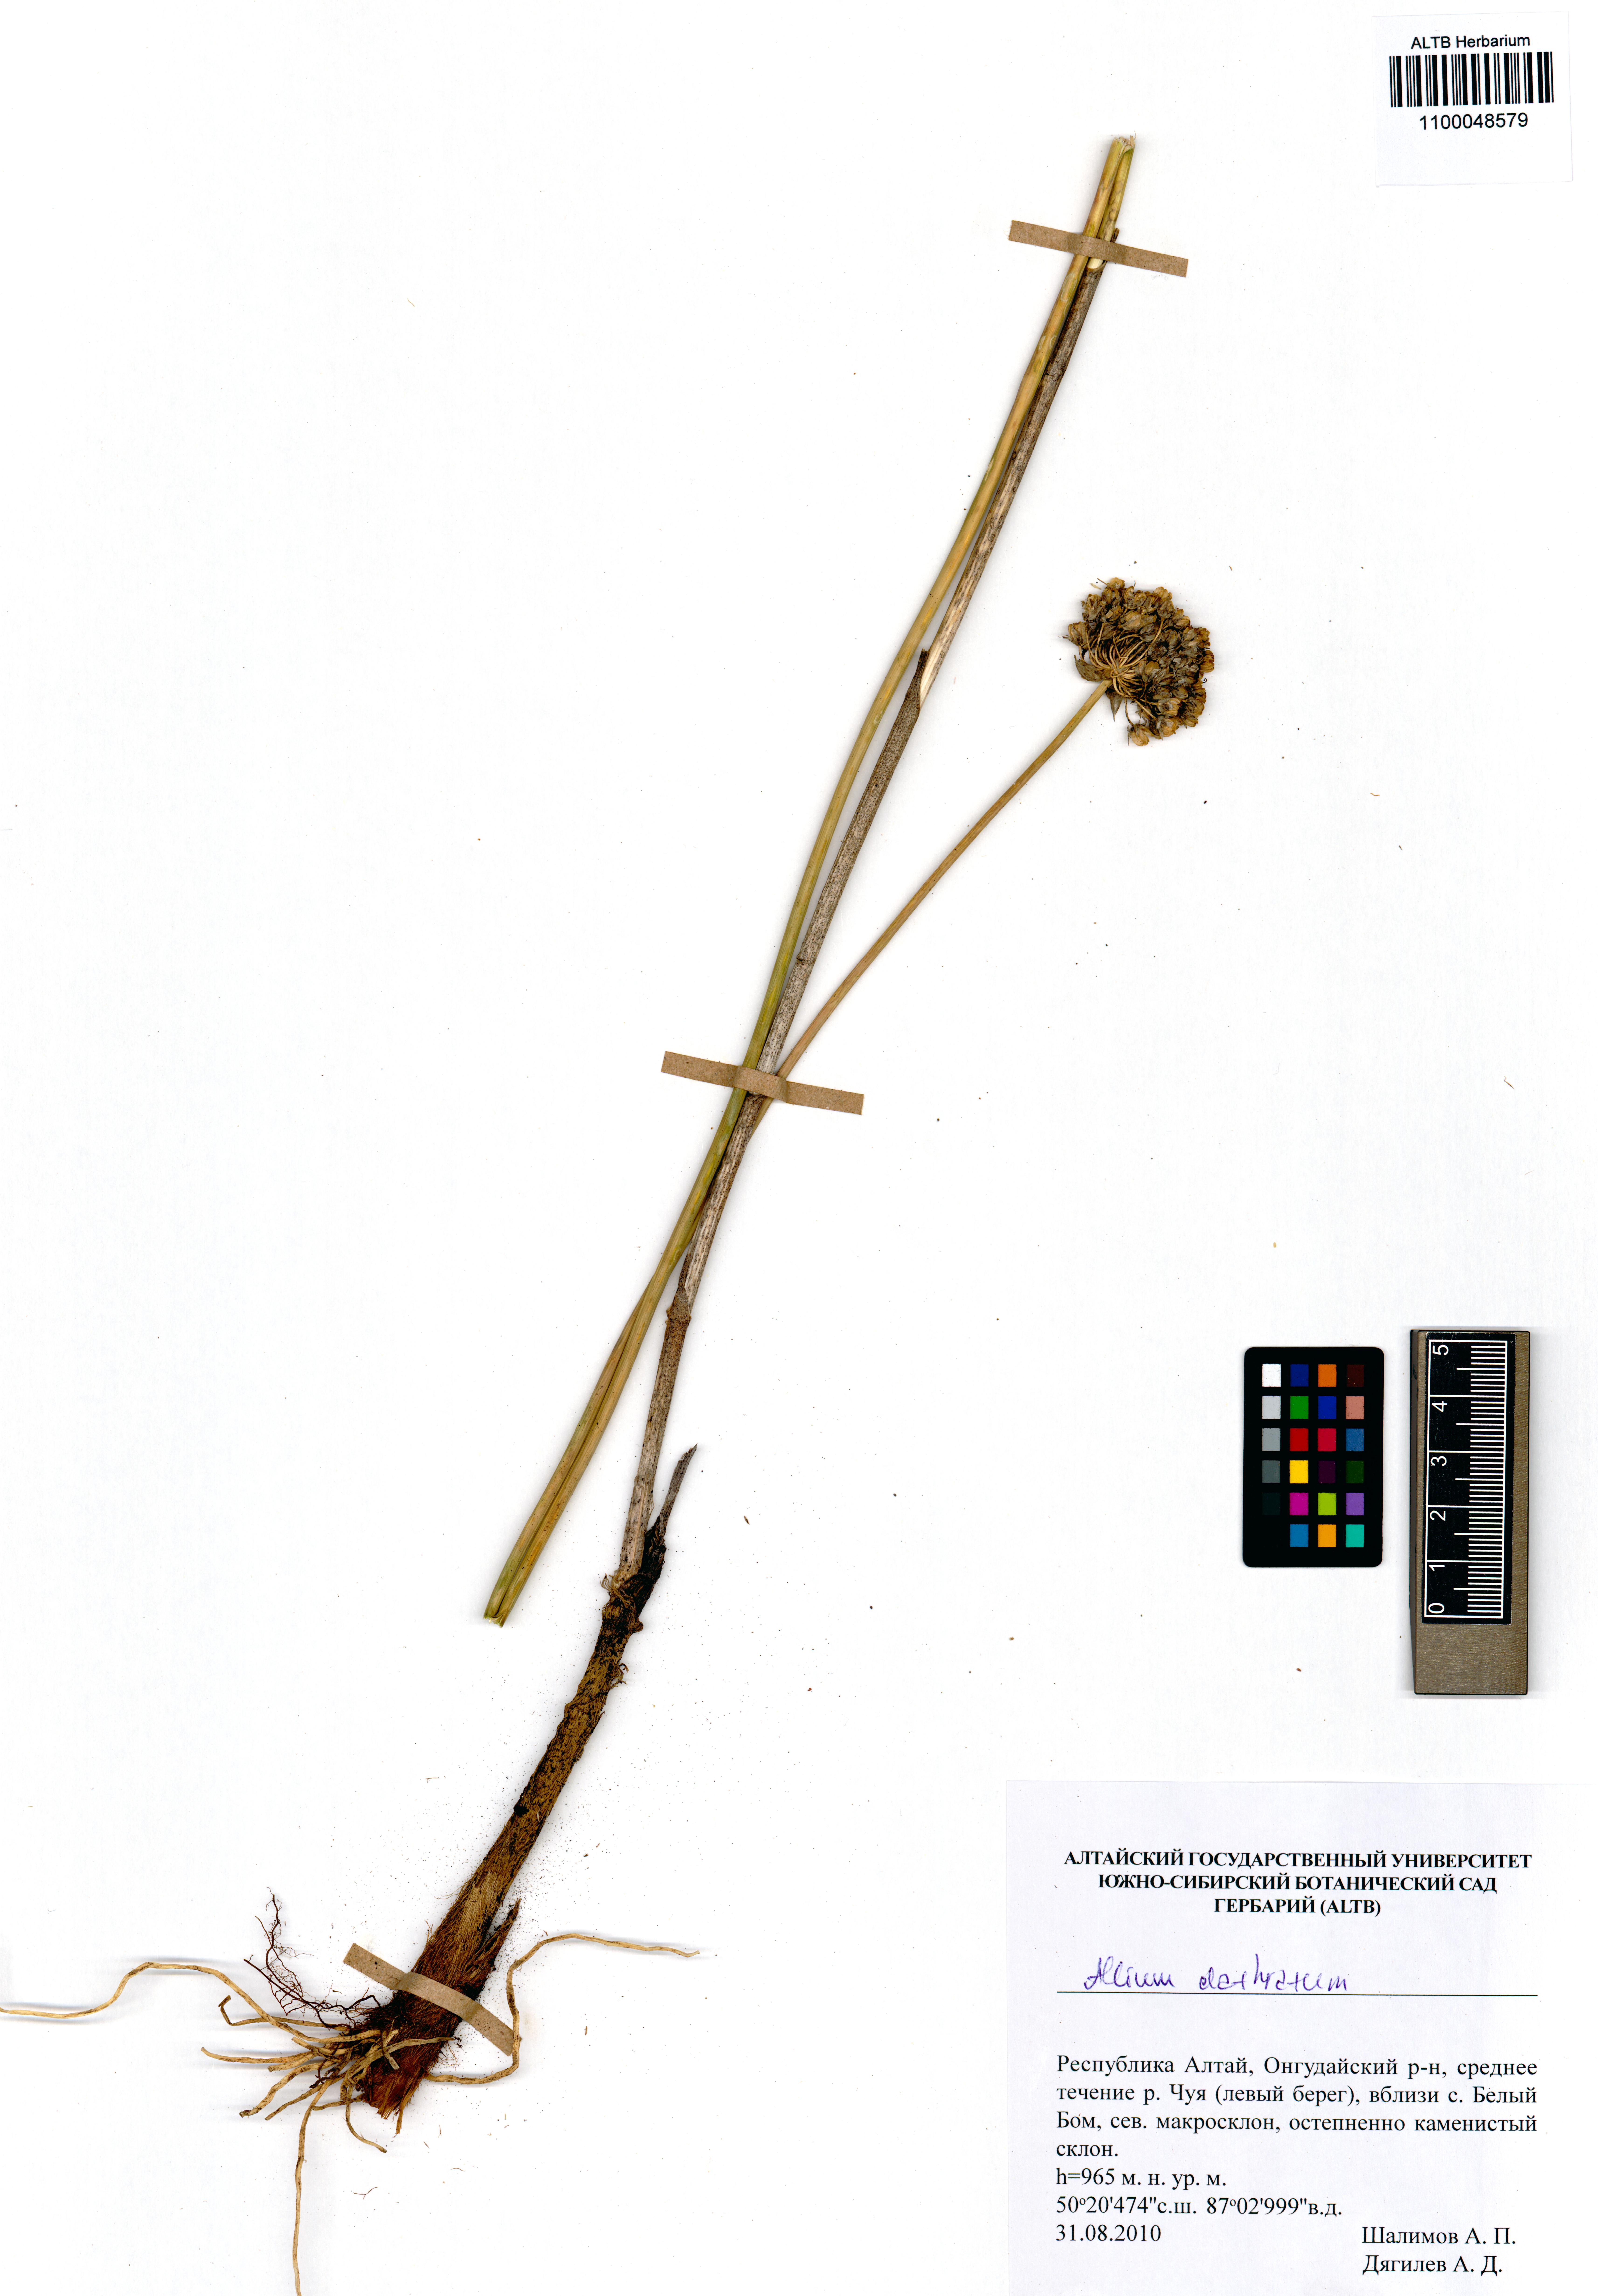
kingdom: Plantae
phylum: Tracheophyta
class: Liliopsida
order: Asparagales
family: Amaryllidaceae
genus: Allium
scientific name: Allium clathratum
